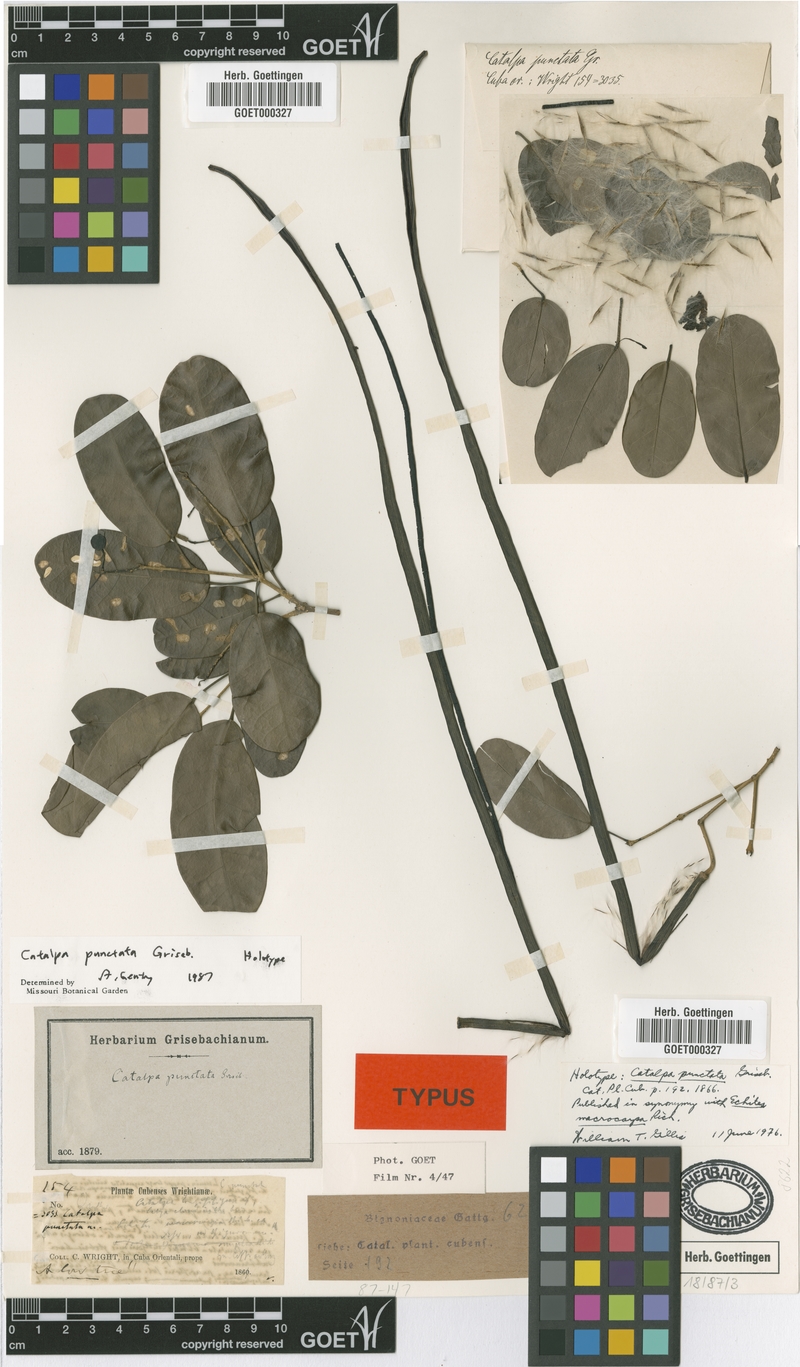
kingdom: Plantae
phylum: Tracheophyta
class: Magnoliopsida
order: Lamiales
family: Bignoniaceae
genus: Catalpa
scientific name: Catalpa macrocarpa
